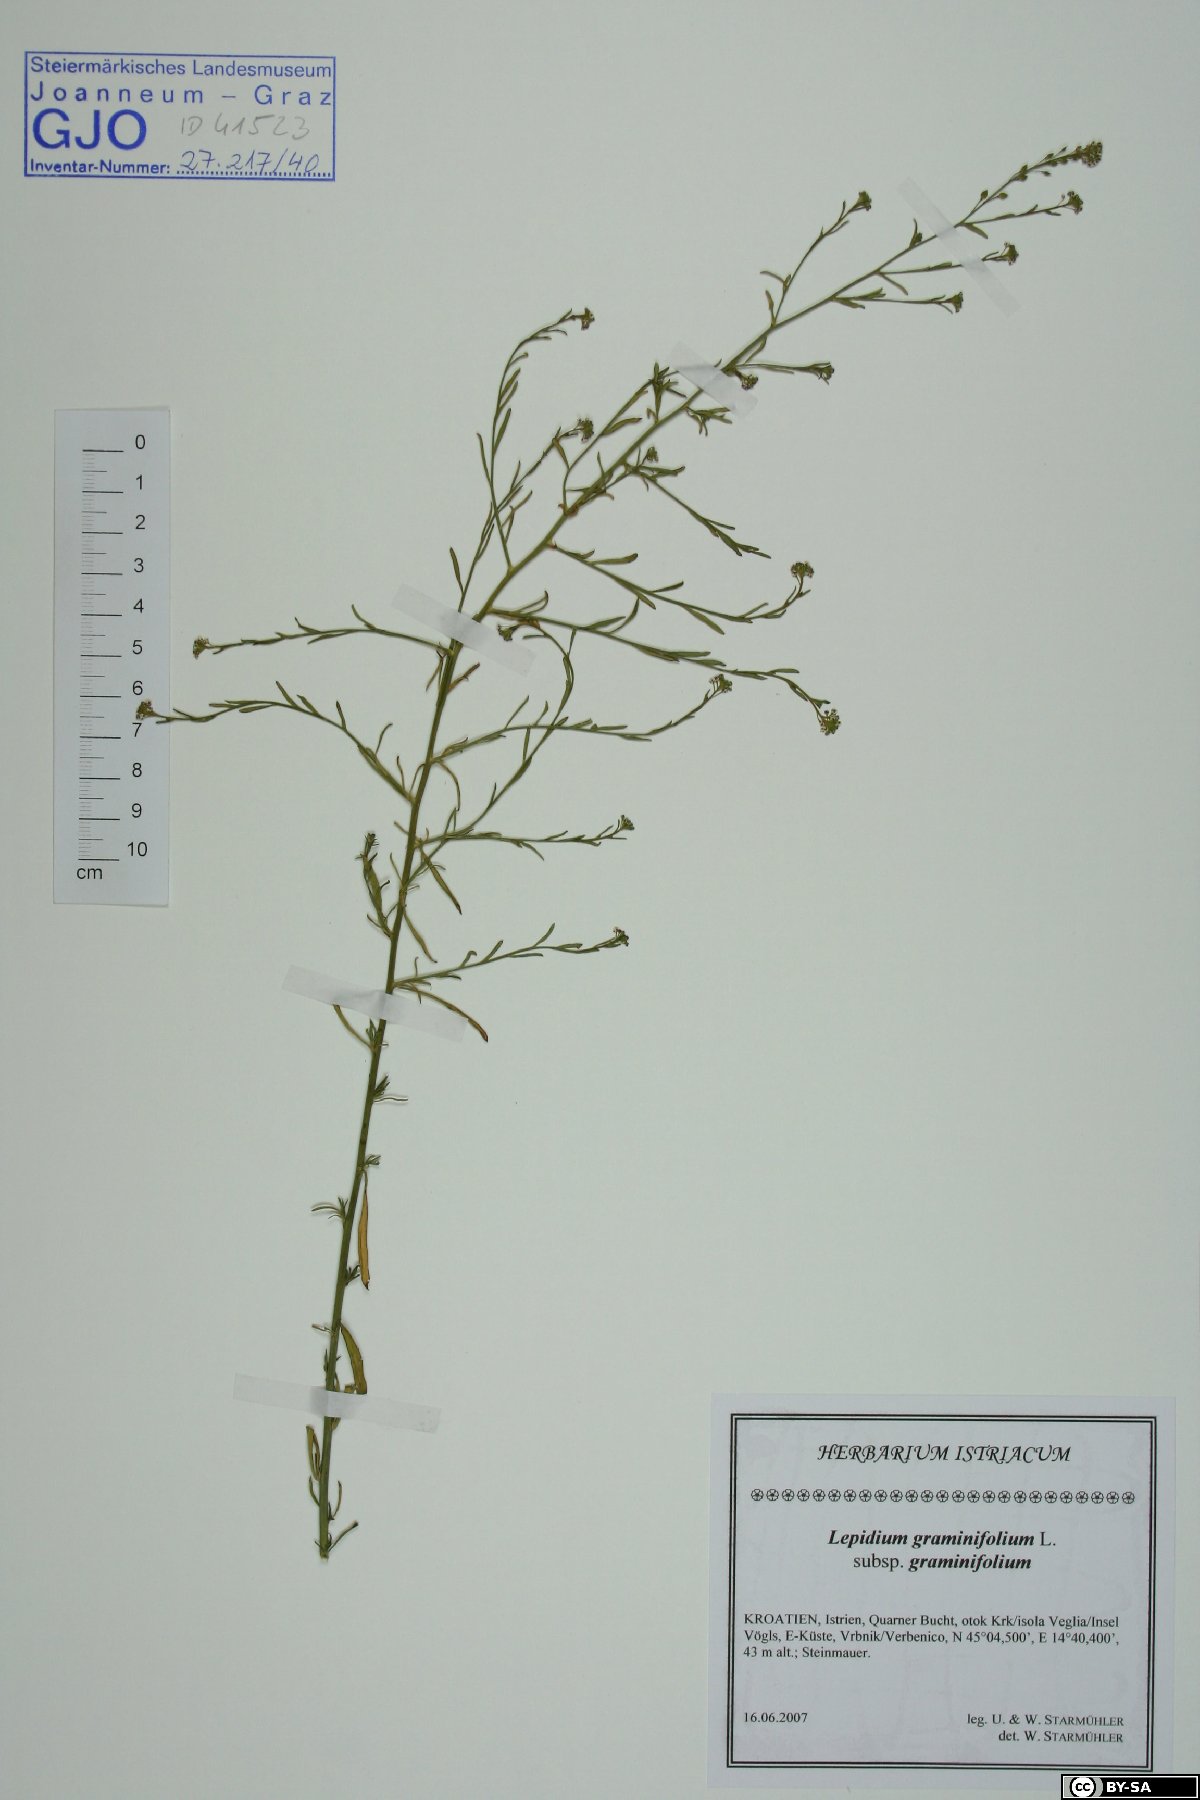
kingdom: Plantae
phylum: Tracheophyta
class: Magnoliopsida
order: Brassicales
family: Brassicaceae
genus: Lepidium
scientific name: Lepidium graminifolium
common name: Tall pepperwort
